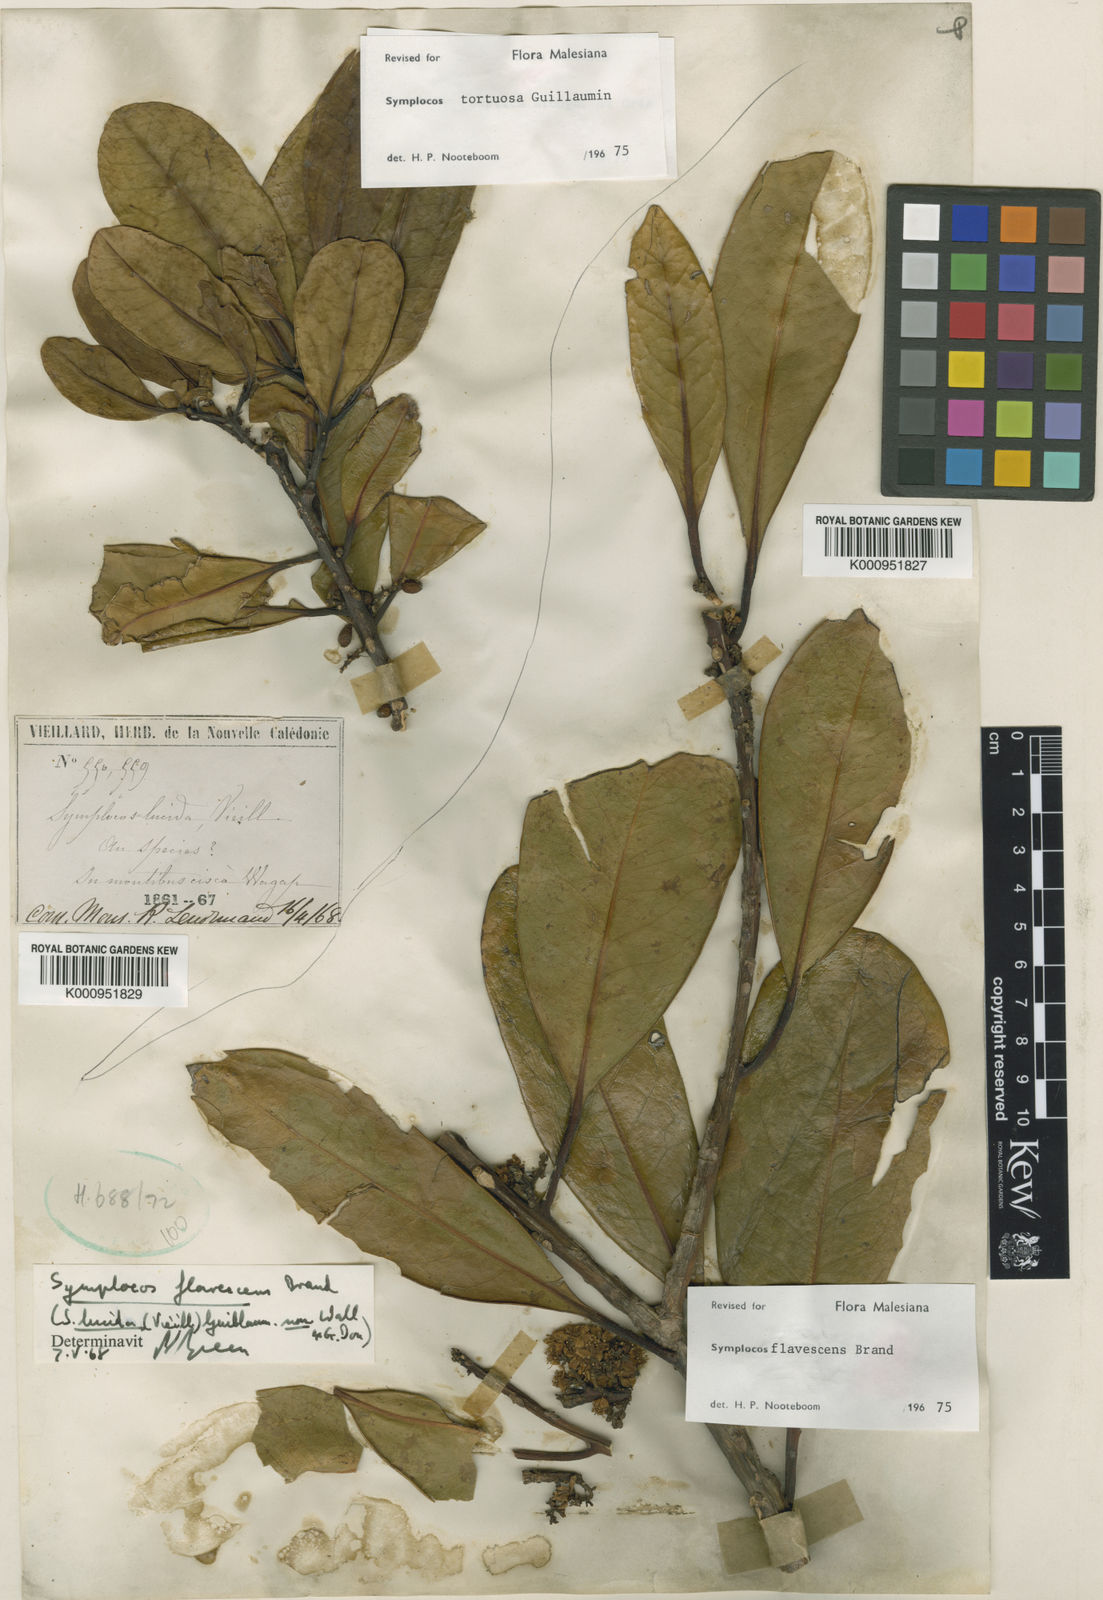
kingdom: Plantae
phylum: Tracheophyta
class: Magnoliopsida
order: Ericales
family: Symplocaceae
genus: Symplocos
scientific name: Symplocos flavescens
